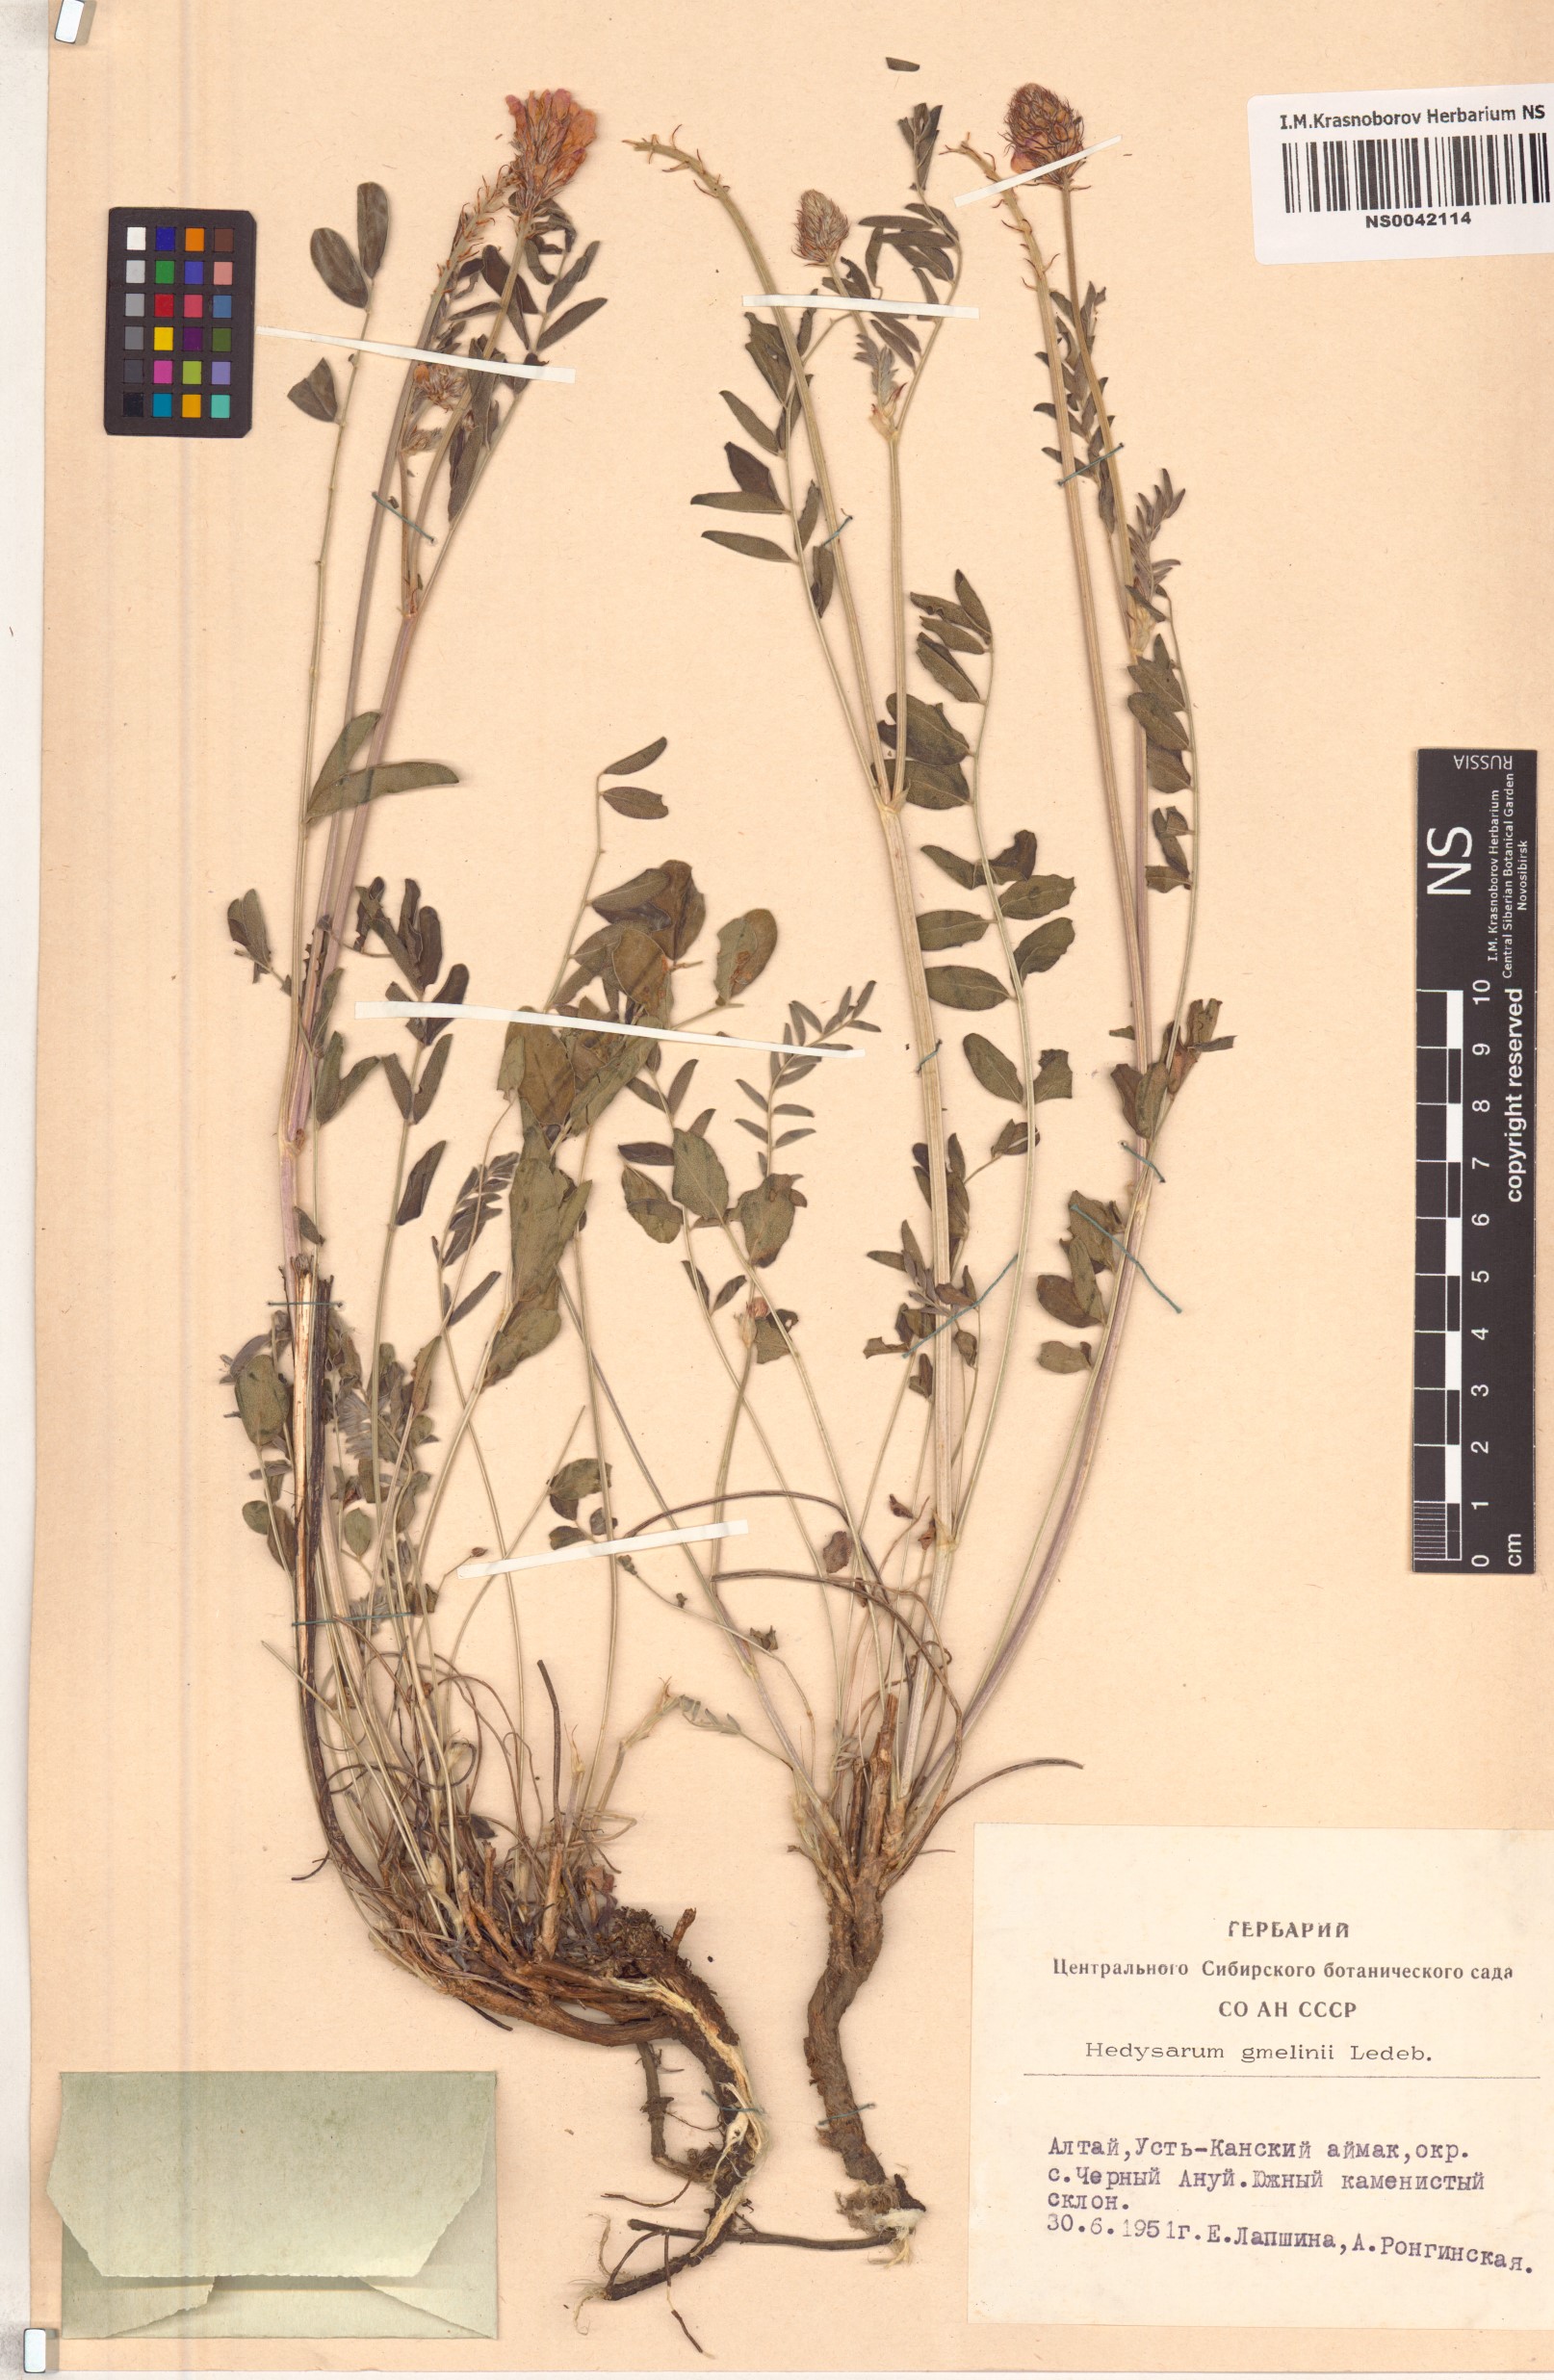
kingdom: Plantae
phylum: Tracheophyta
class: Magnoliopsida
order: Fabales
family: Fabaceae
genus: Hedysarum
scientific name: Hedysarum gmelinii
